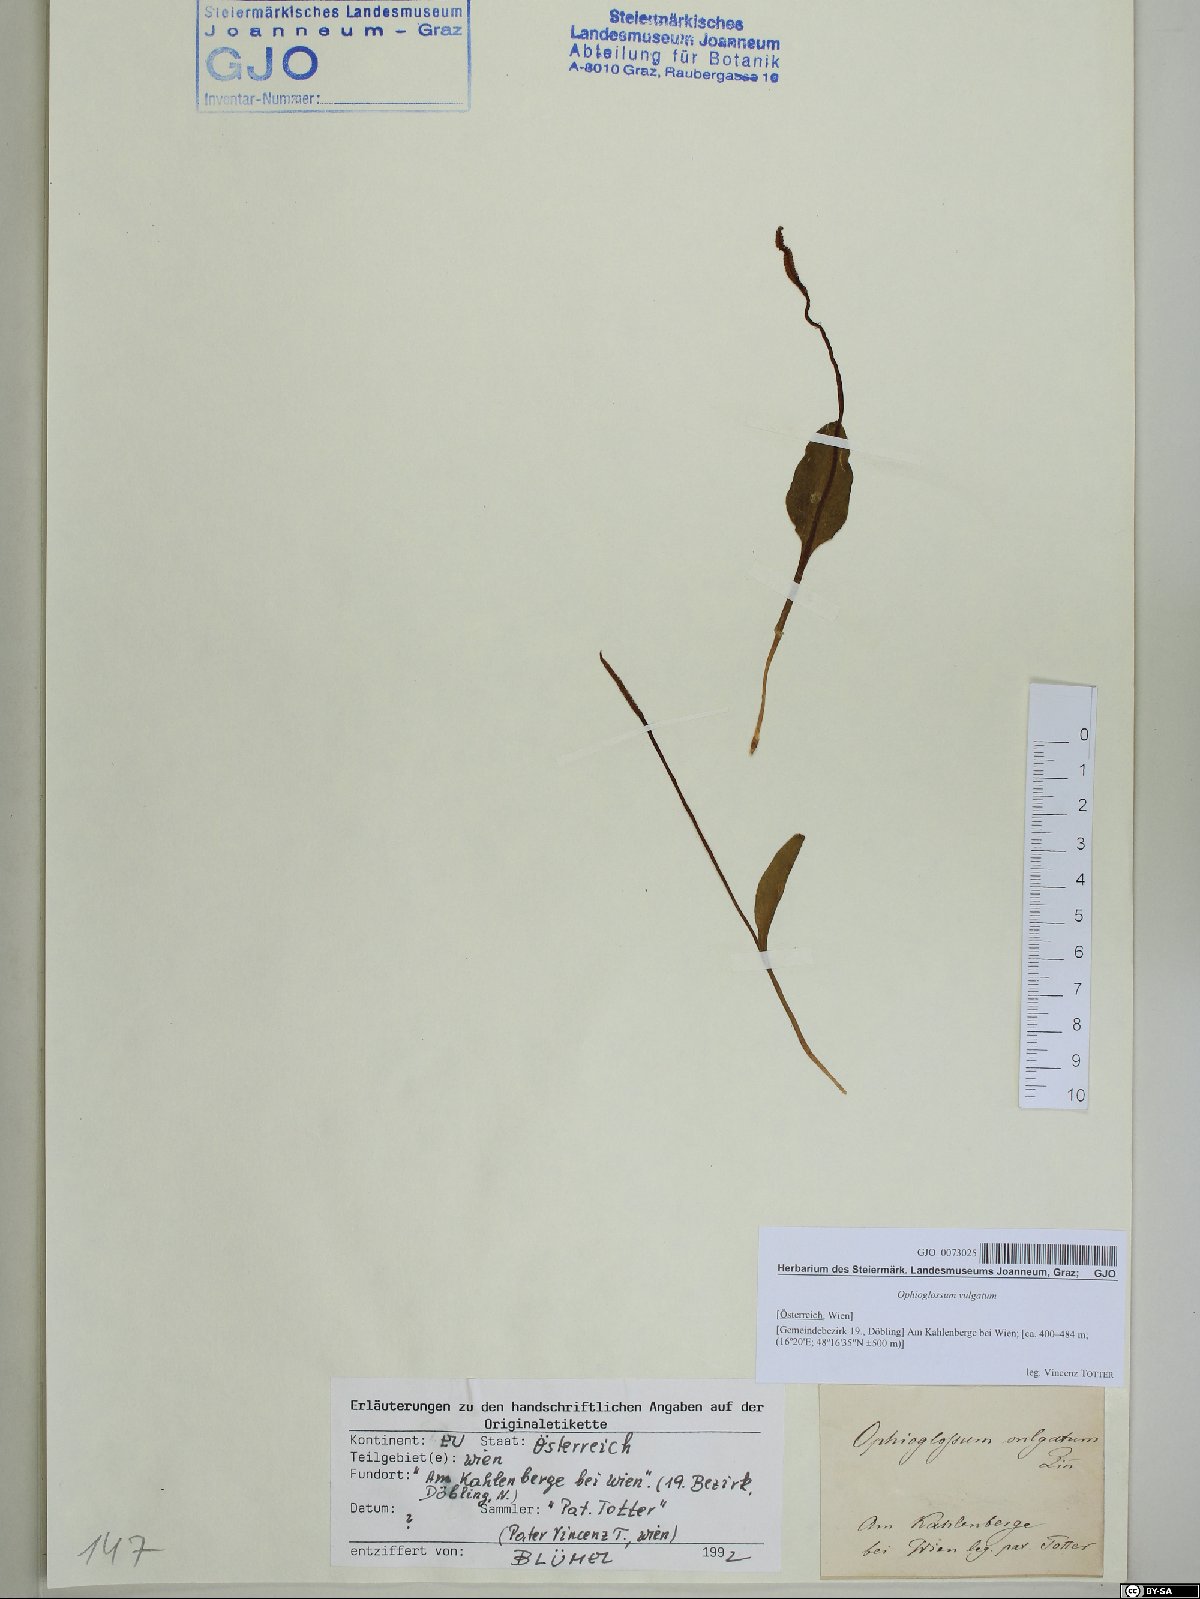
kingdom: Plantae
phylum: Tracheophyta
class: Polypodiopsida
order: Ophioglossales
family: Ophioglossaceae
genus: Ophioglossum
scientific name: Ophioglossum vulgatum
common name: Adder's-tongue
